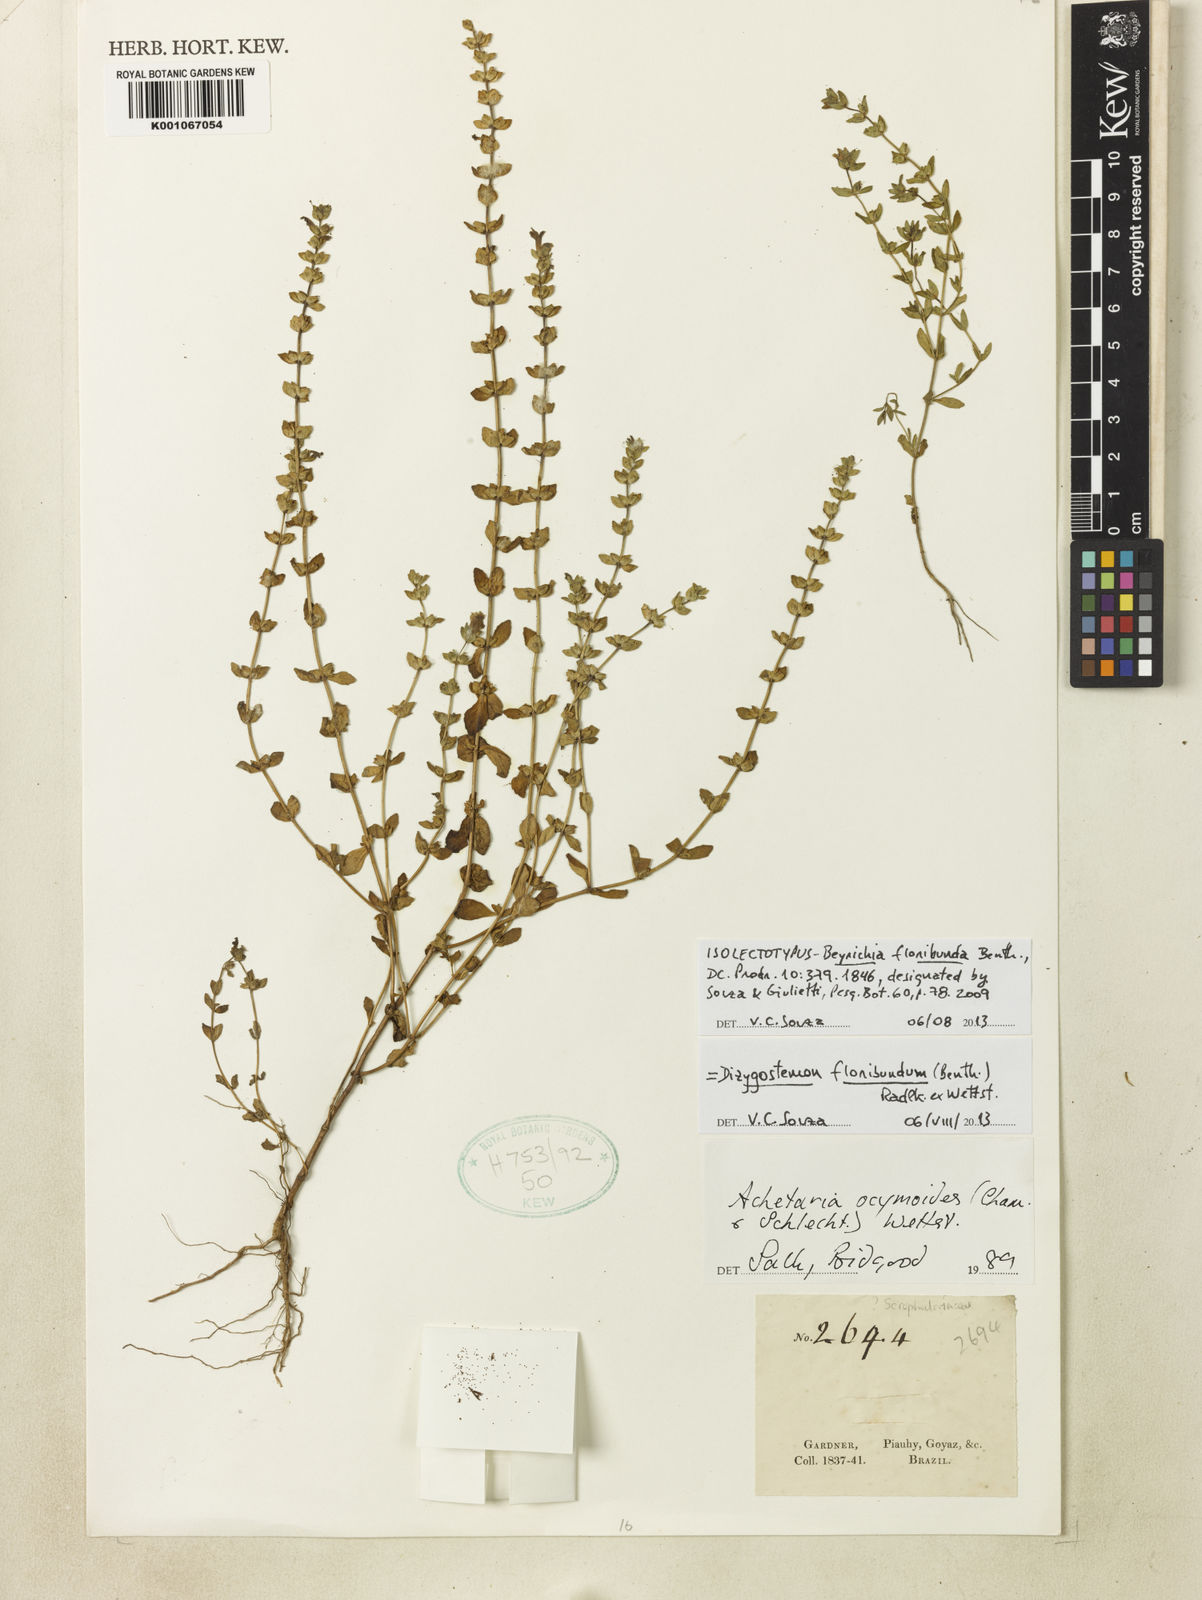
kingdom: Plantae
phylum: Tracheophyta
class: Magnoliopsida
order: Lamiales
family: Plantaginaceae
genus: Dizygostemon
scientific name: Dizygostemon floribundum
